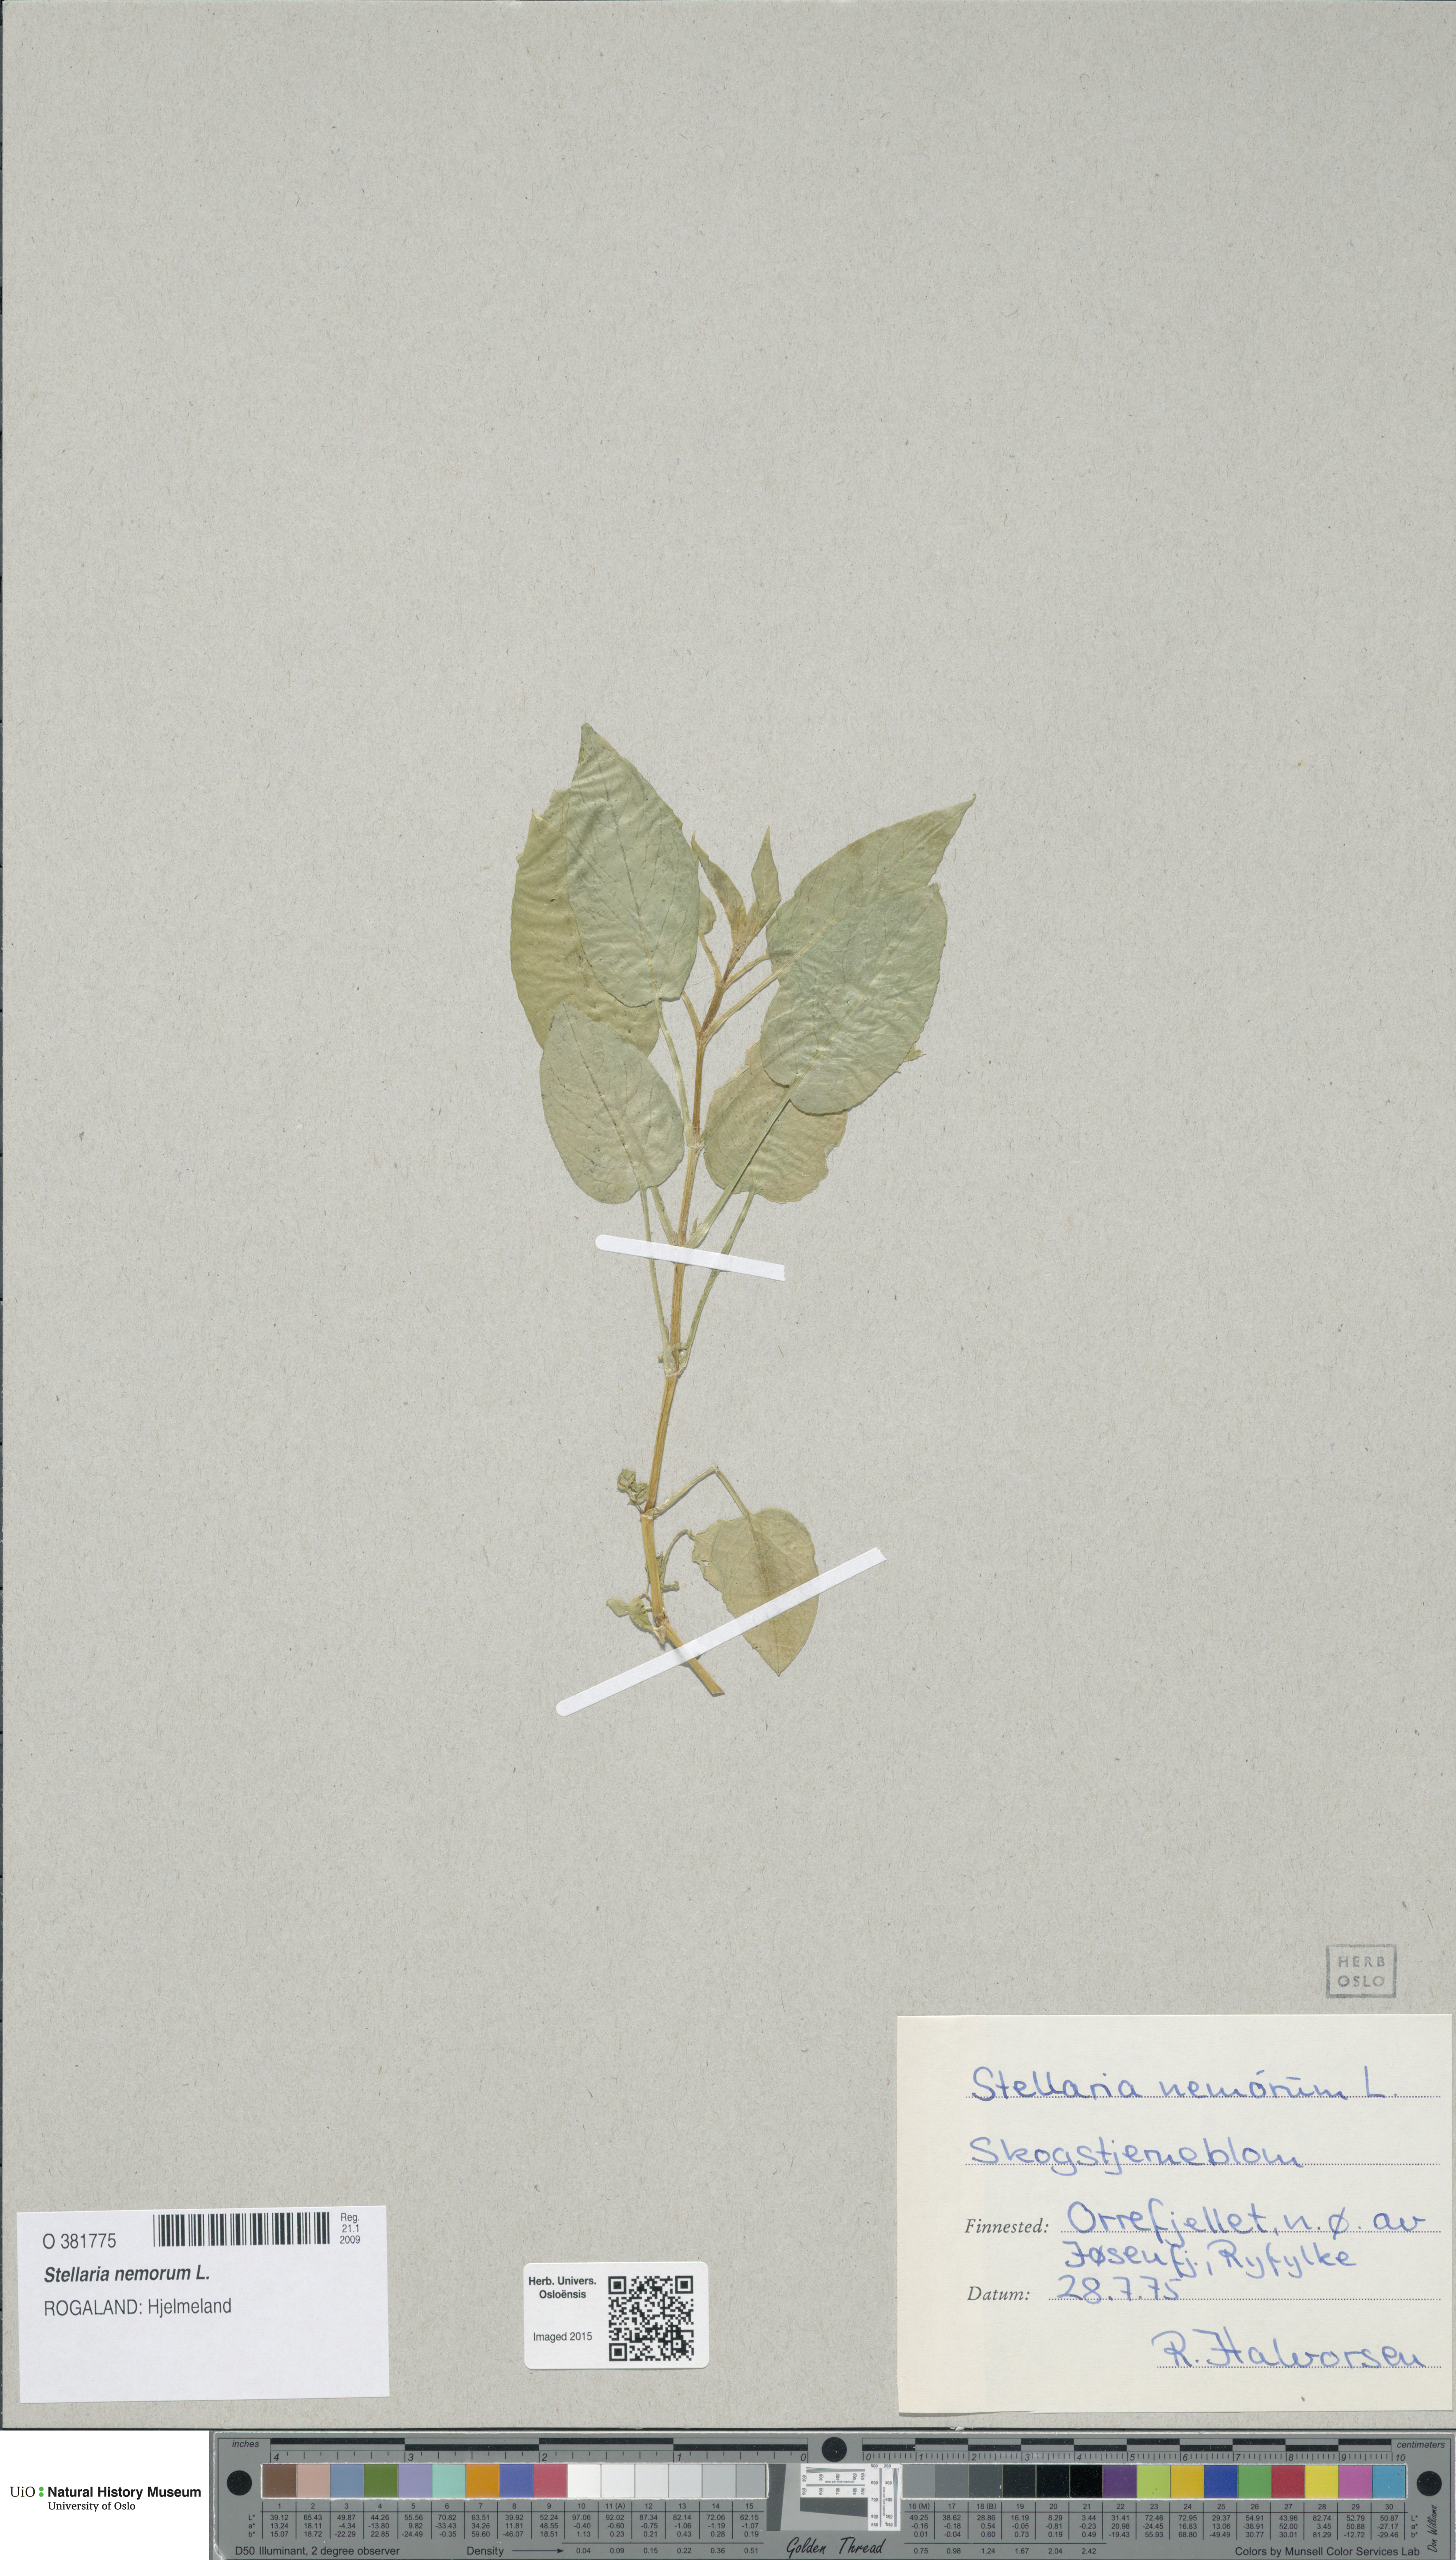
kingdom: Plantae
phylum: Tracheophyta
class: Magnoliopsida
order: Caryophyllales
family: Caryophyllaceae
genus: Stellaria
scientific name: Stellaria nemorum
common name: Wood stitchwort
